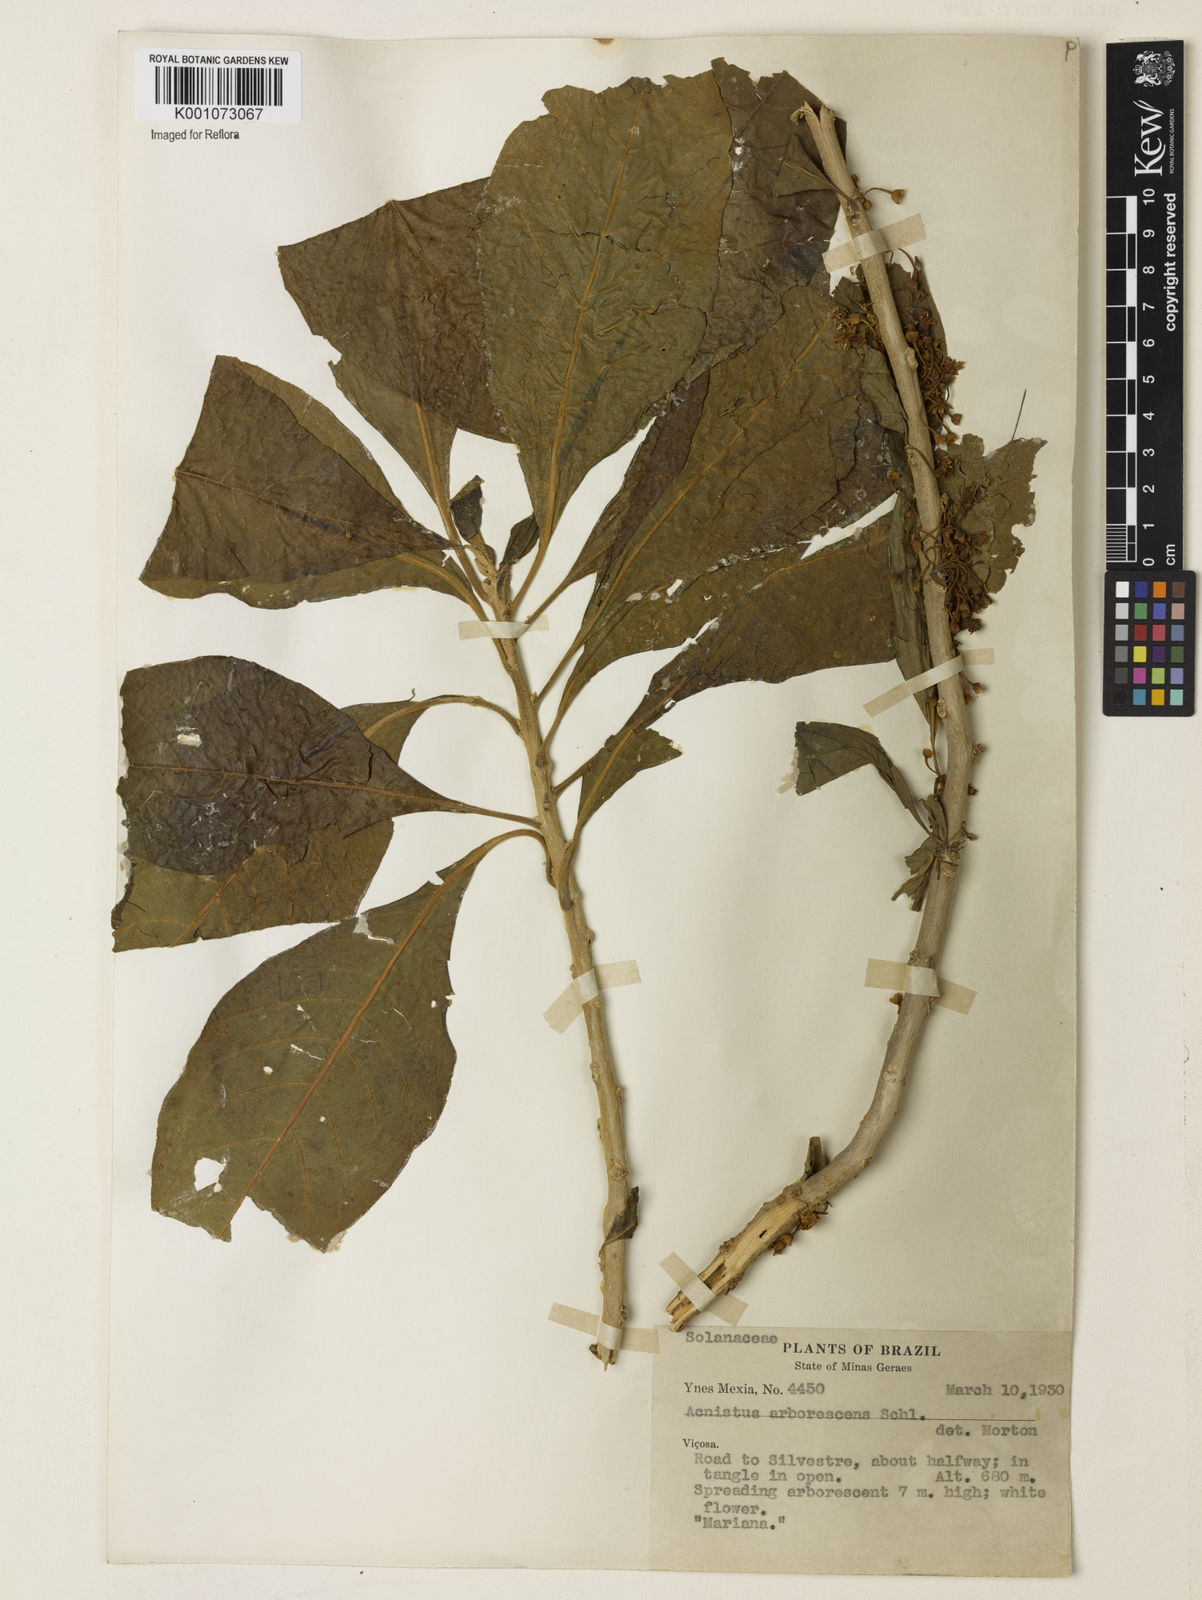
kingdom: Plantae
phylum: Tracheophyta
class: Magnoliopsida
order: Solanales
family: Solanaceae
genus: Iochroma
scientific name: Iochroma arborescens
